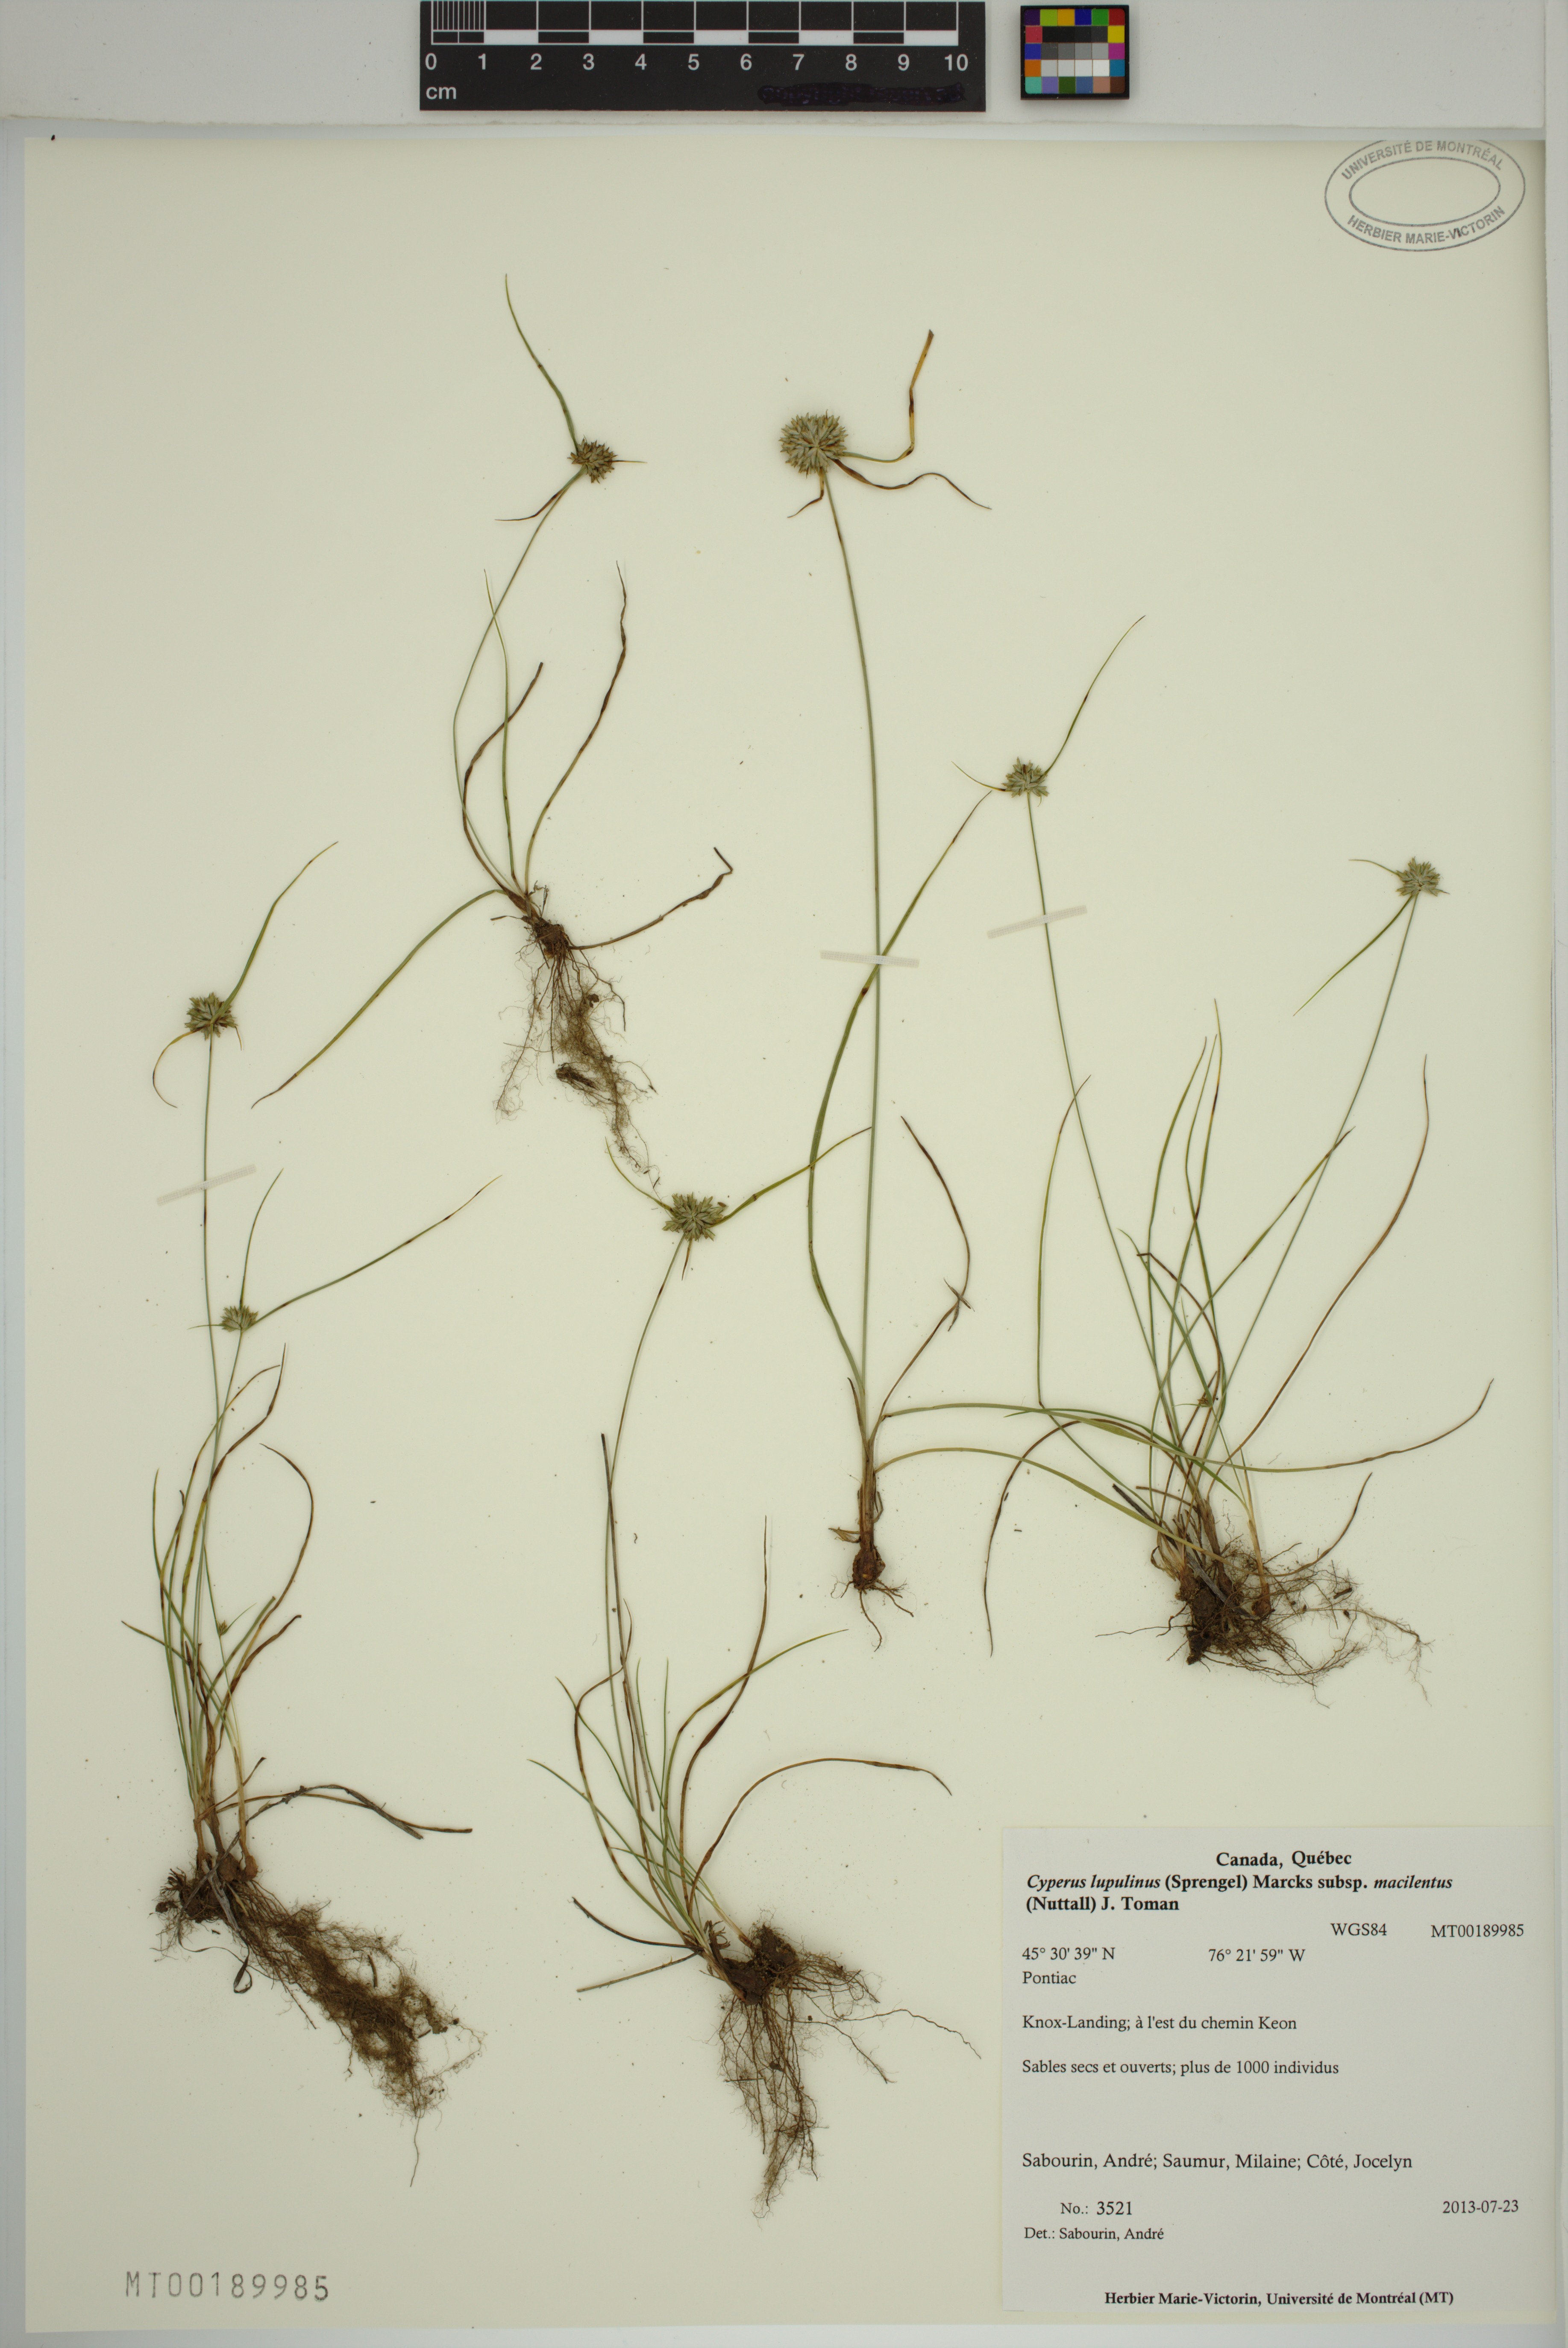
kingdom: Plantae
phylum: Tracheophyta
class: Liliopsida
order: Poales
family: Cyperaceae
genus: Cyperus
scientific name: Cyperus lupulinus
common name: Great plains flatsedge
